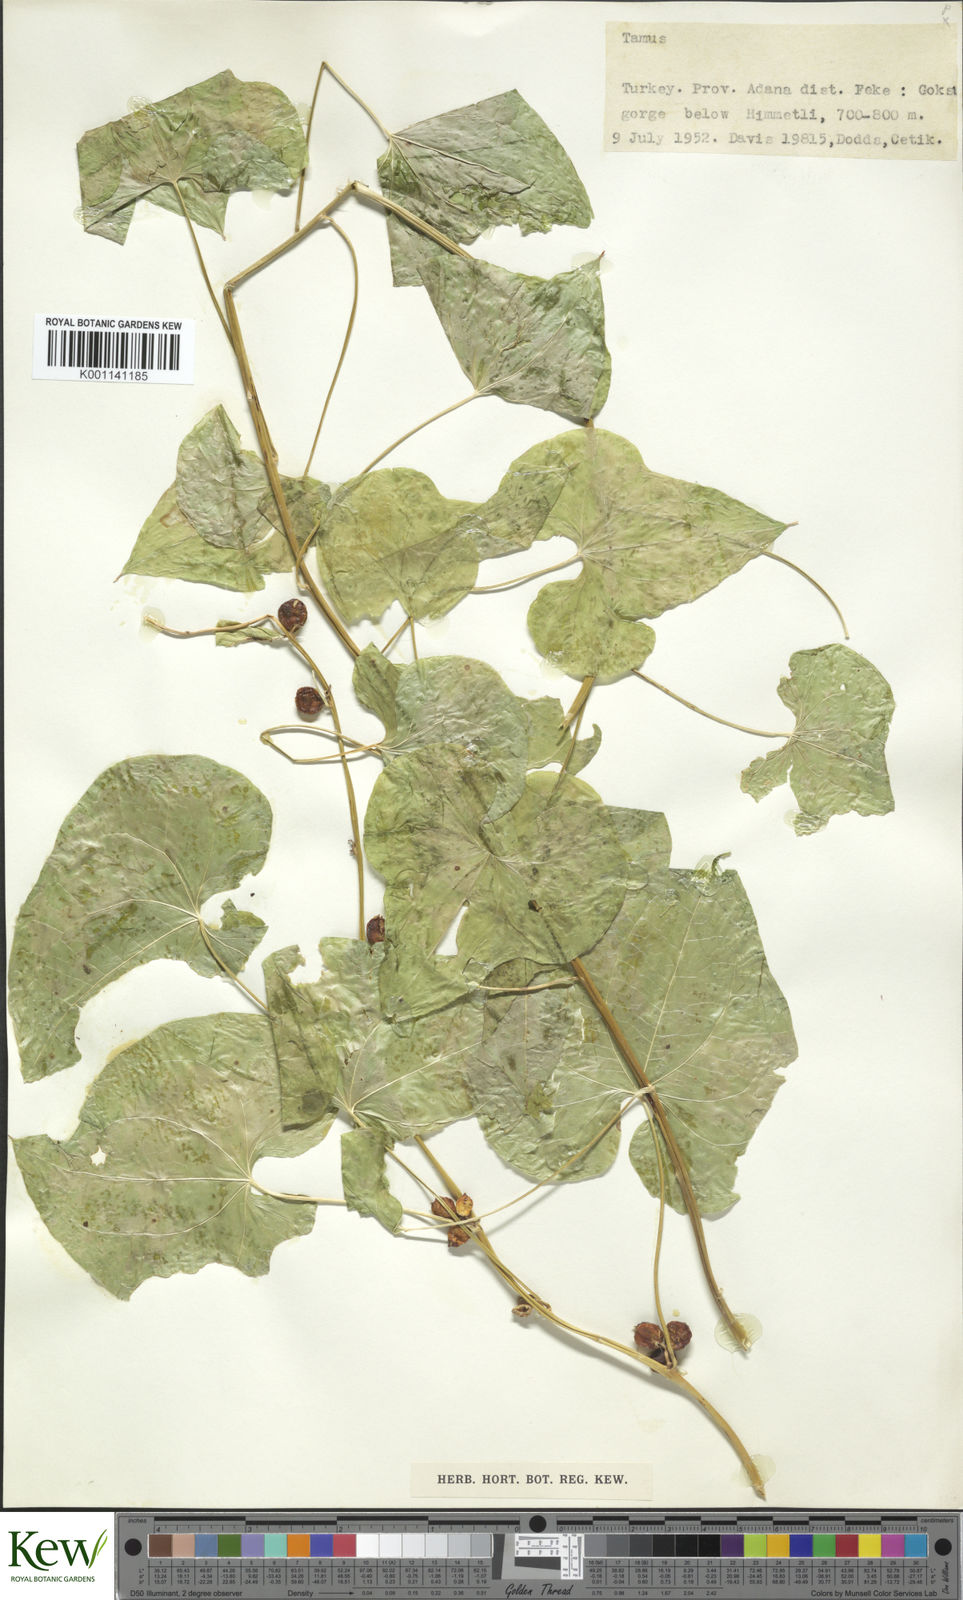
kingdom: Plantae
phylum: Tracheophyta
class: Liliopsida
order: Dioscoreales
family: Dioscoreaceae
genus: Dioscorea
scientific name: Dioscorea communis
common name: Black-bindweed
